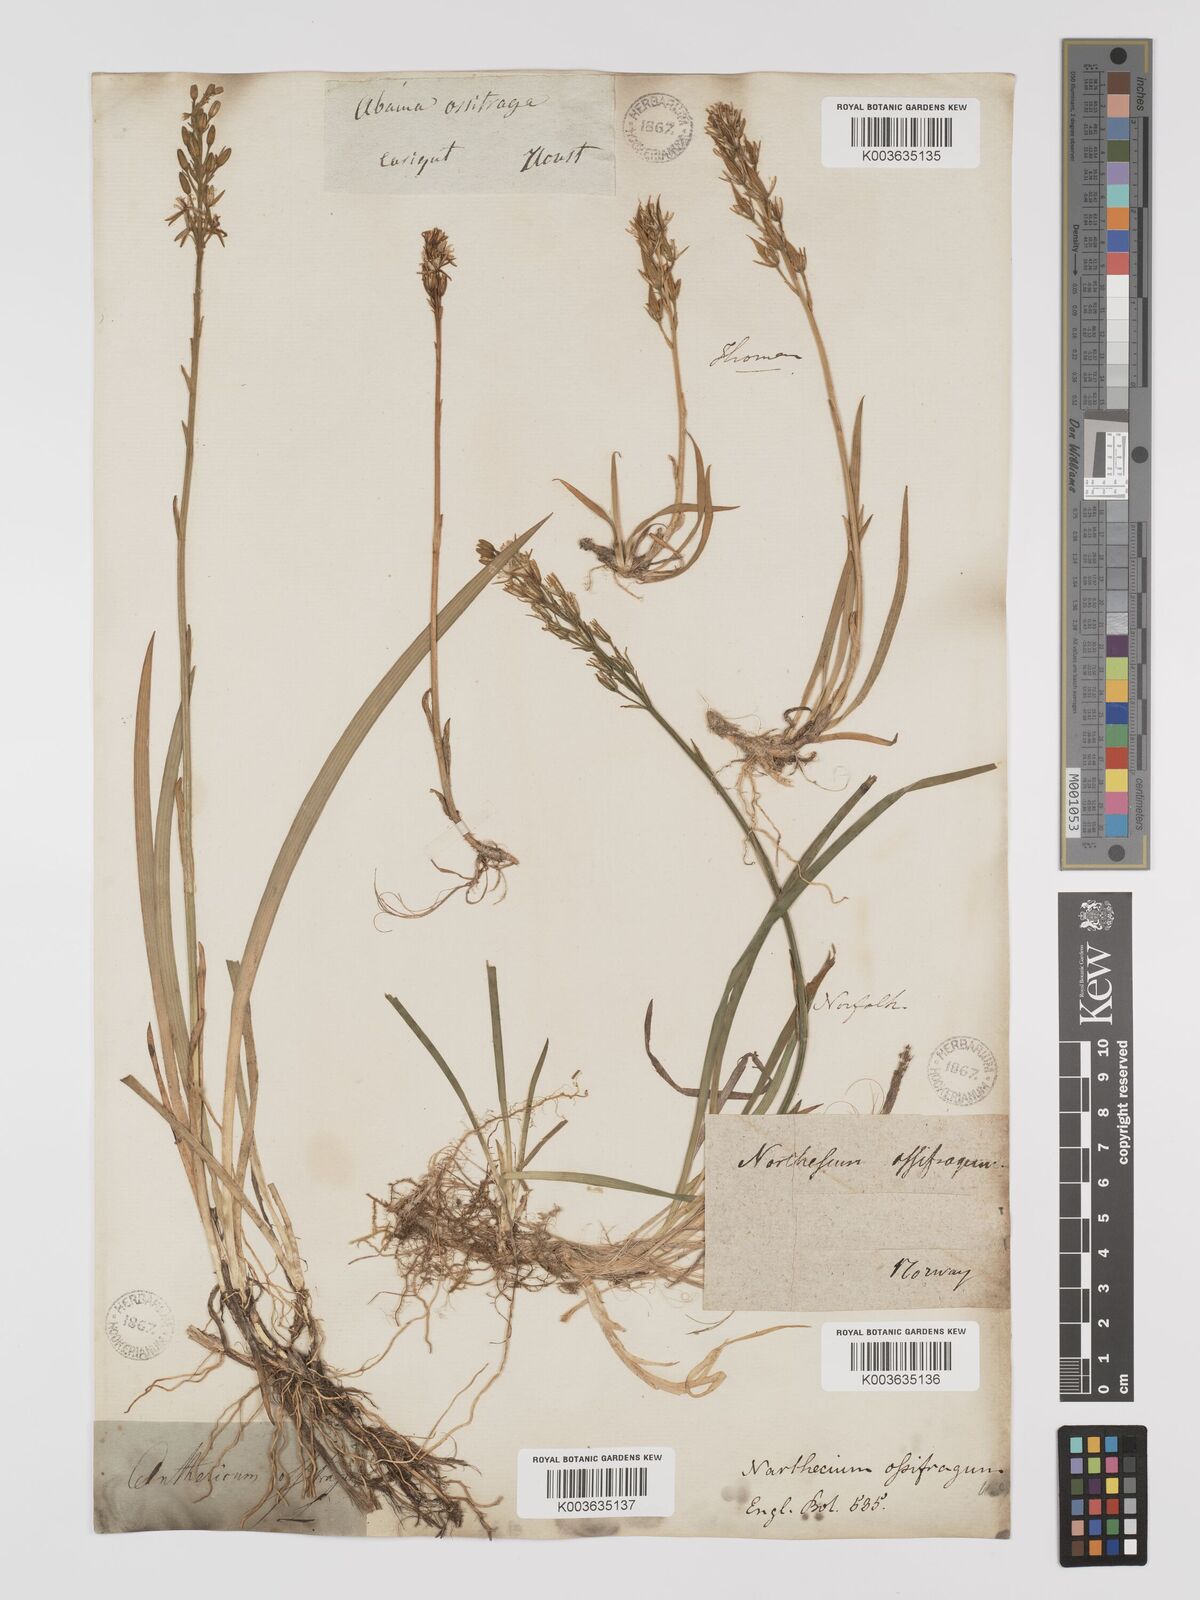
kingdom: Plantae
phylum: Tracheophyta
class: Liliopsida
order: Dioscoreales
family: Nartheciaceae
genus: Narthecium
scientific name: Narthecium ossifragum
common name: Bog asphodel
